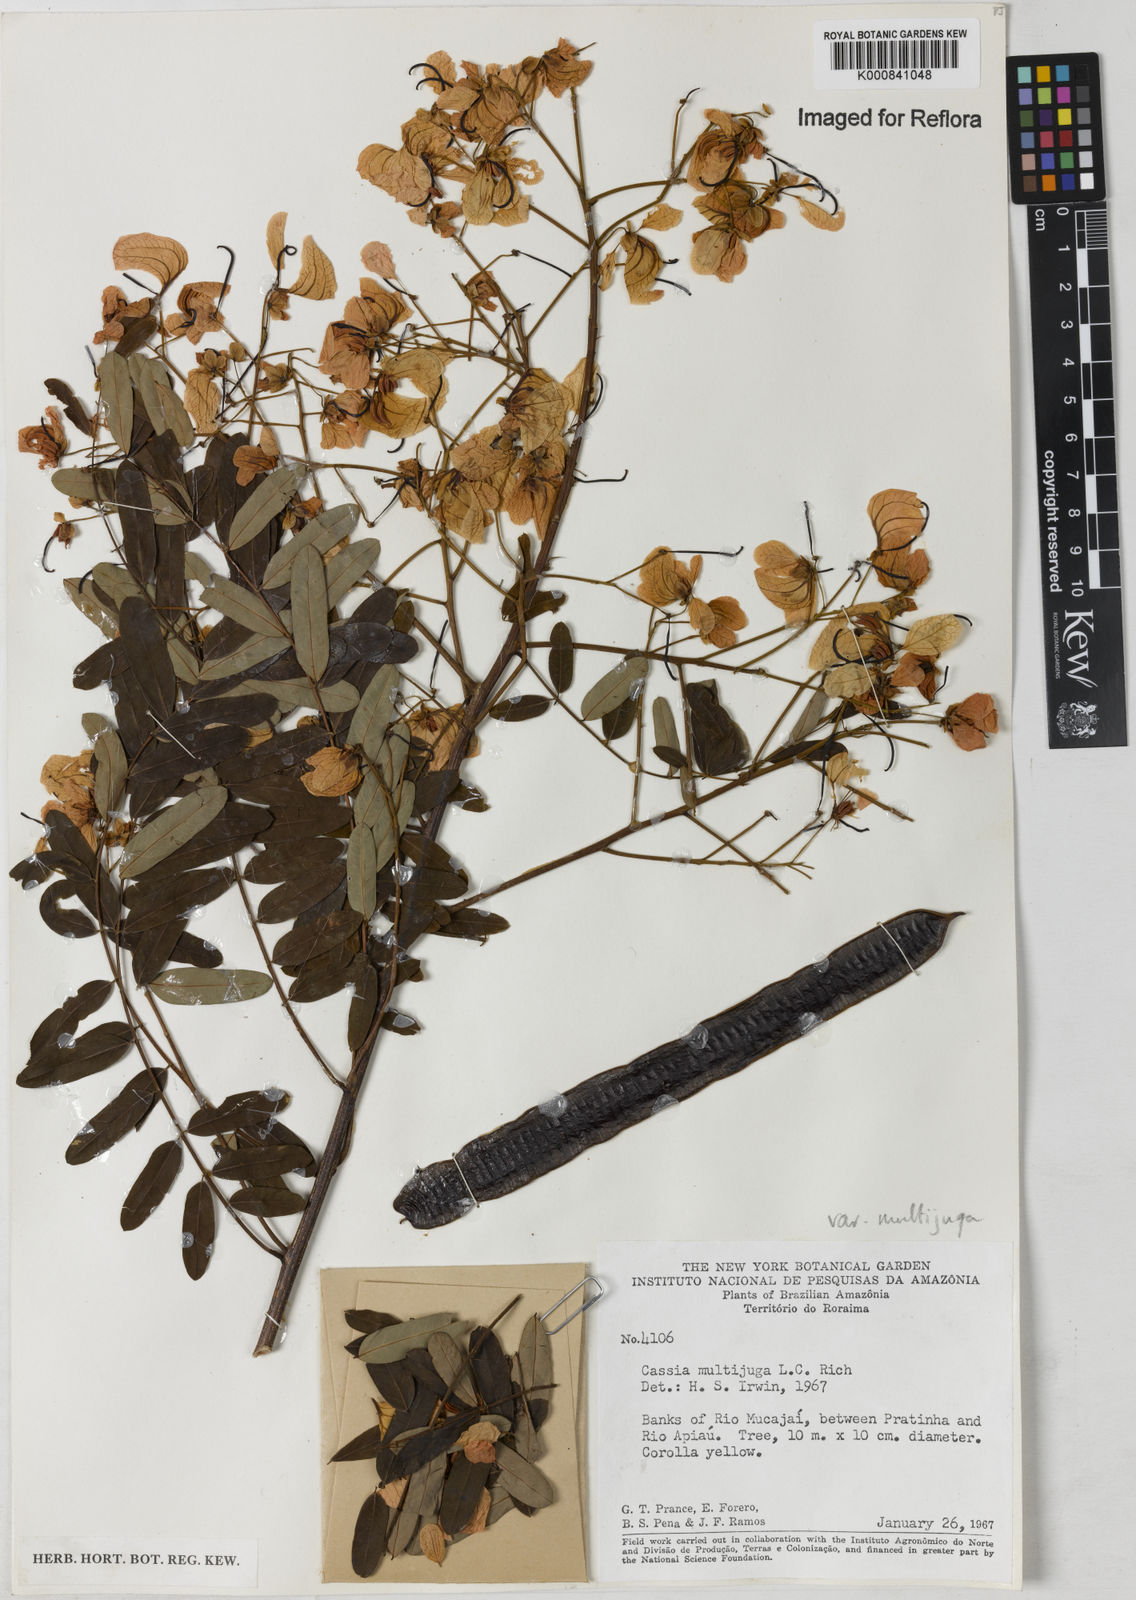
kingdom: Plantae
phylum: Tracheophyta
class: Magnoliopsida
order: Fabales
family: Fabaceae
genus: Senna
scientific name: Senna multijuga
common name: False sicklepod
